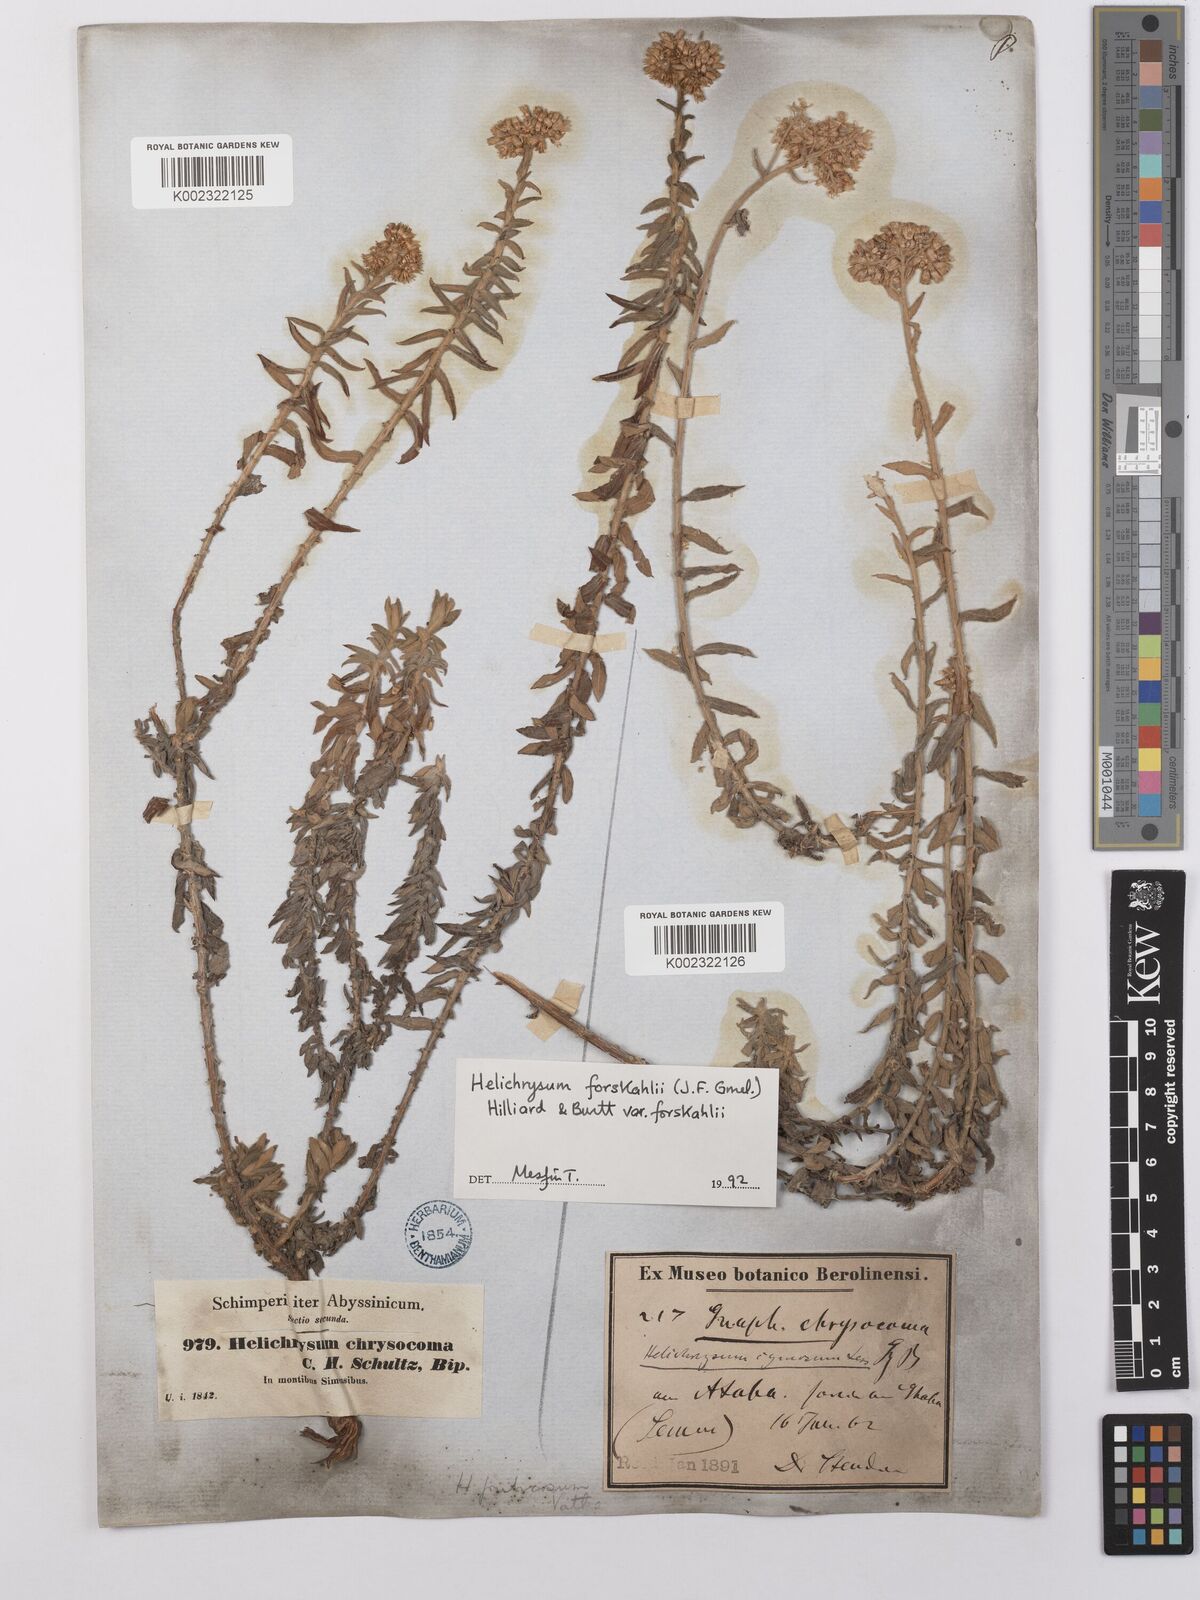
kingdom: Plantae
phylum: Tracheophyta
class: Magnoliopsida
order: Asterales
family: Asteraceae
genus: Helichrysum
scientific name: Helichrysum forskahlii
